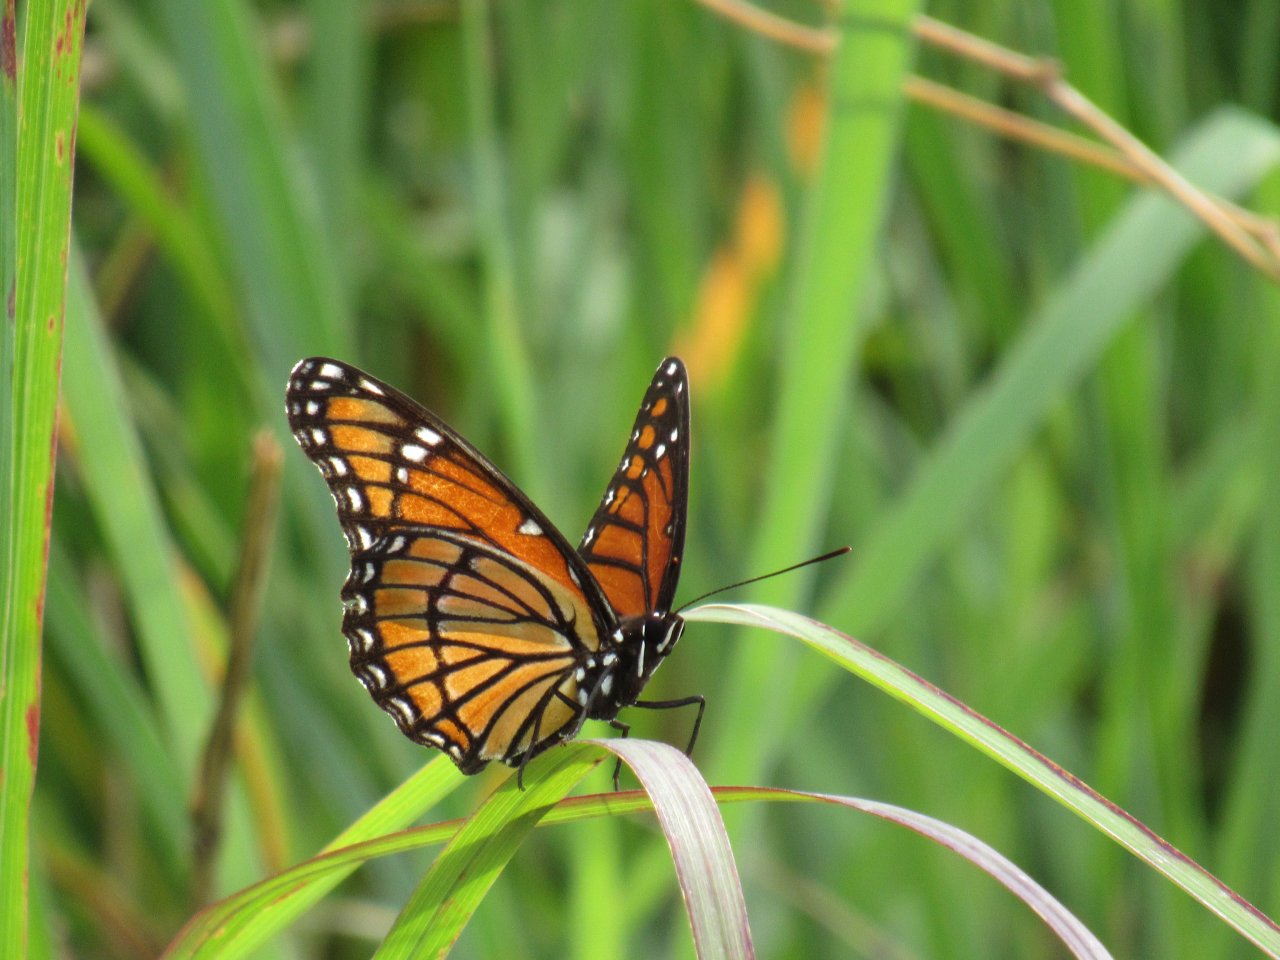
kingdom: Animalia
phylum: Arthropoda
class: Insecta
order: Lepidoptera
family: Nymphalidae
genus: Limenitis
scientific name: Limenitis archippus
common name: Viceroy
